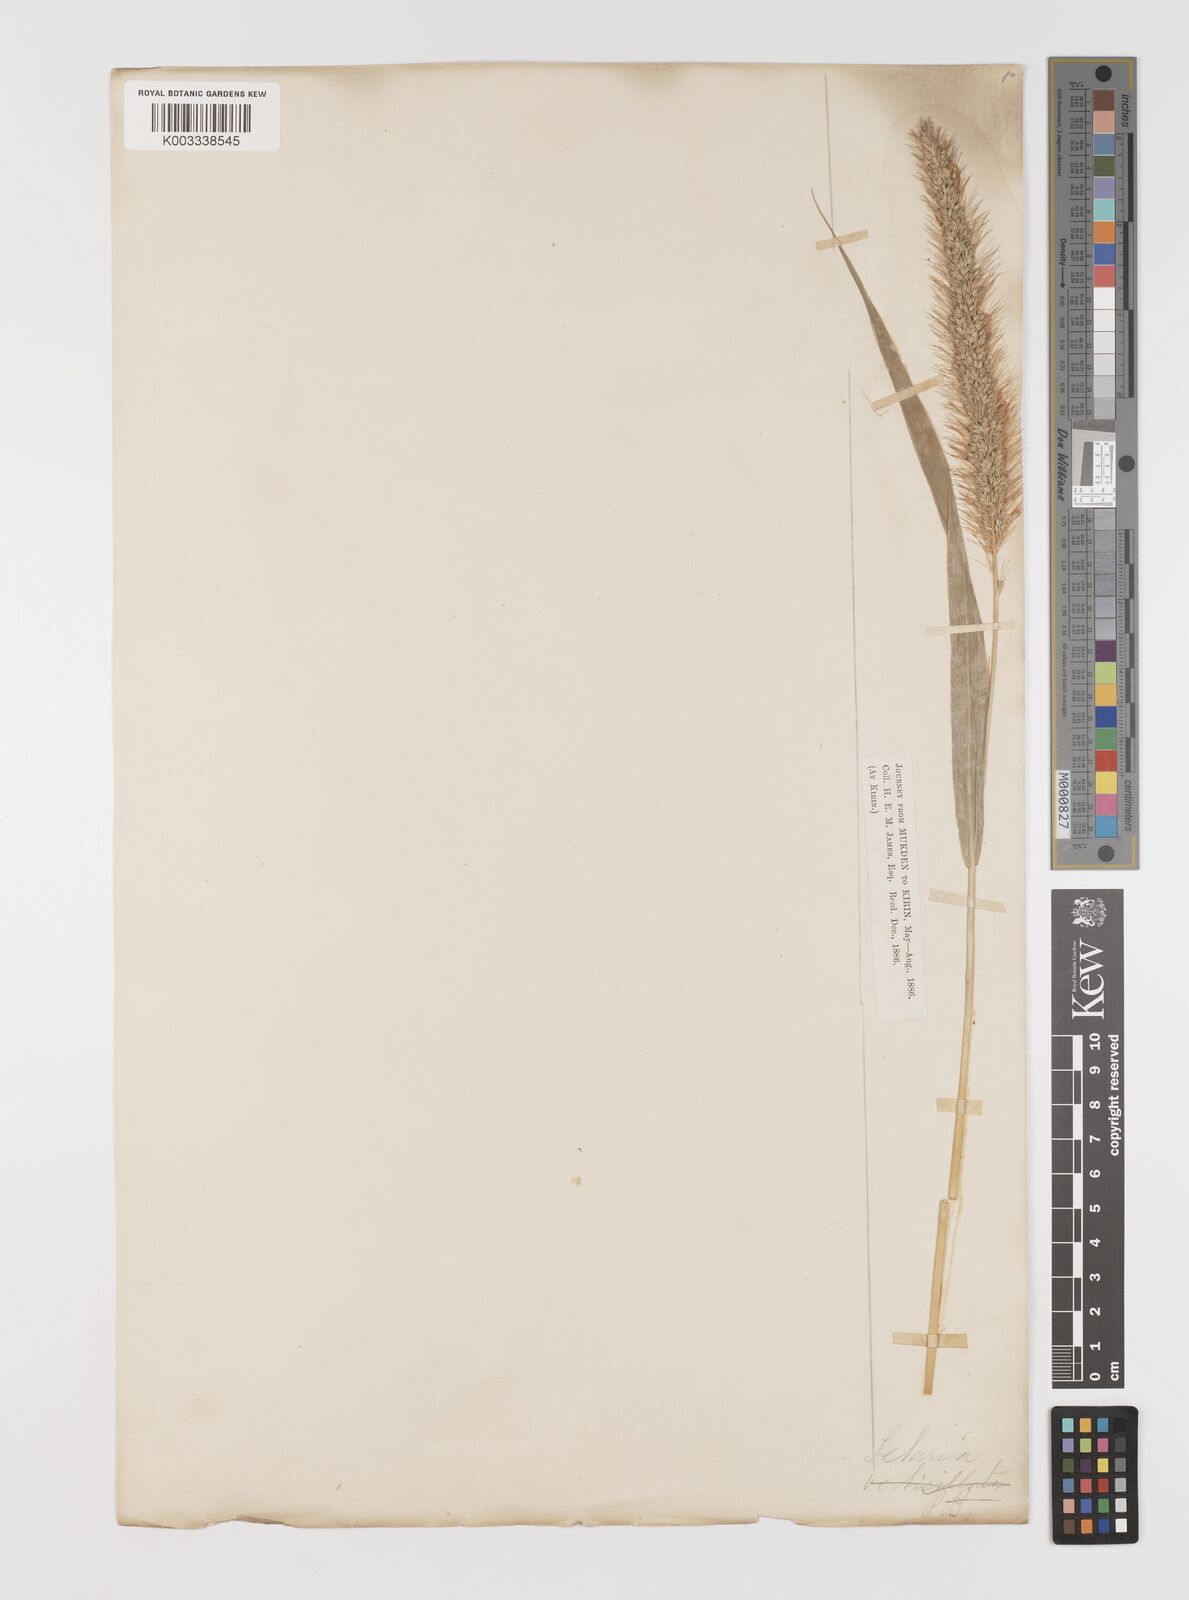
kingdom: Plantae
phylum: Tracheophyta
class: Liliopsida
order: Poales
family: Poaceae
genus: Setaria
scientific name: Setaria faberi
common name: Nodding bristle-grass
